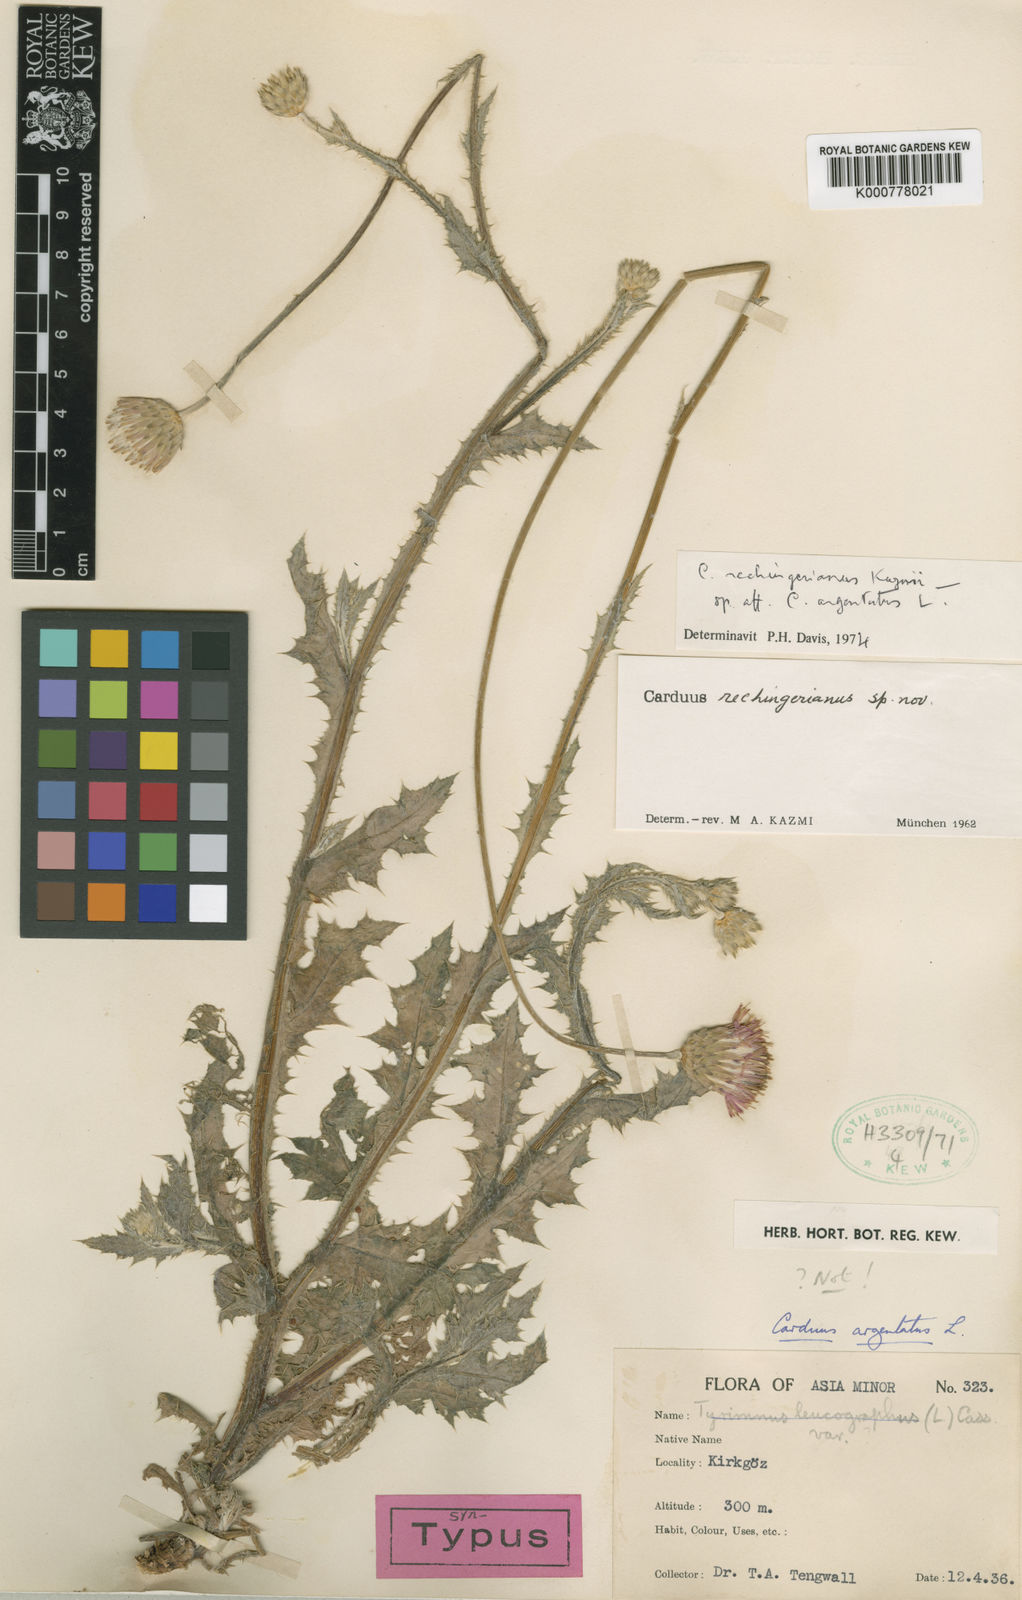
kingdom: Plantae
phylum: Tracheophyta
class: Magnoliopsida
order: Asterales
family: Asteraceae
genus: Carduus
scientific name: Carduus rechingerianus
